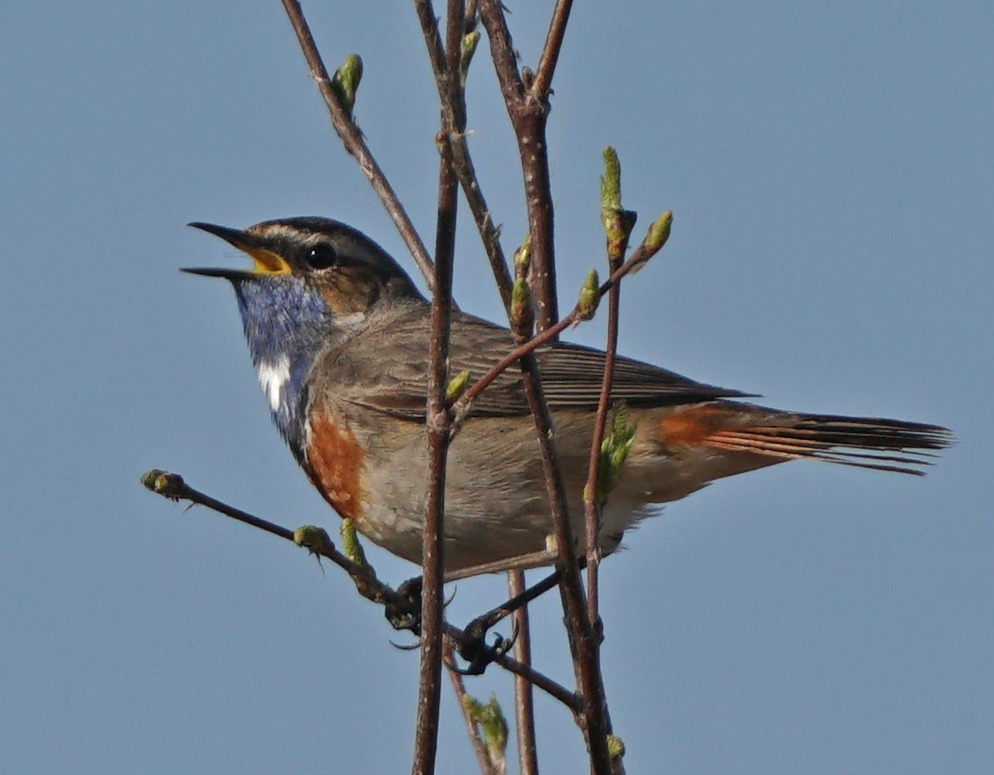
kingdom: Animalia
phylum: Chordata
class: Aves
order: Passeriformes
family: Muscicapidae
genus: Luscinia
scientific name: Luscinia svecica
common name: Blåhals
